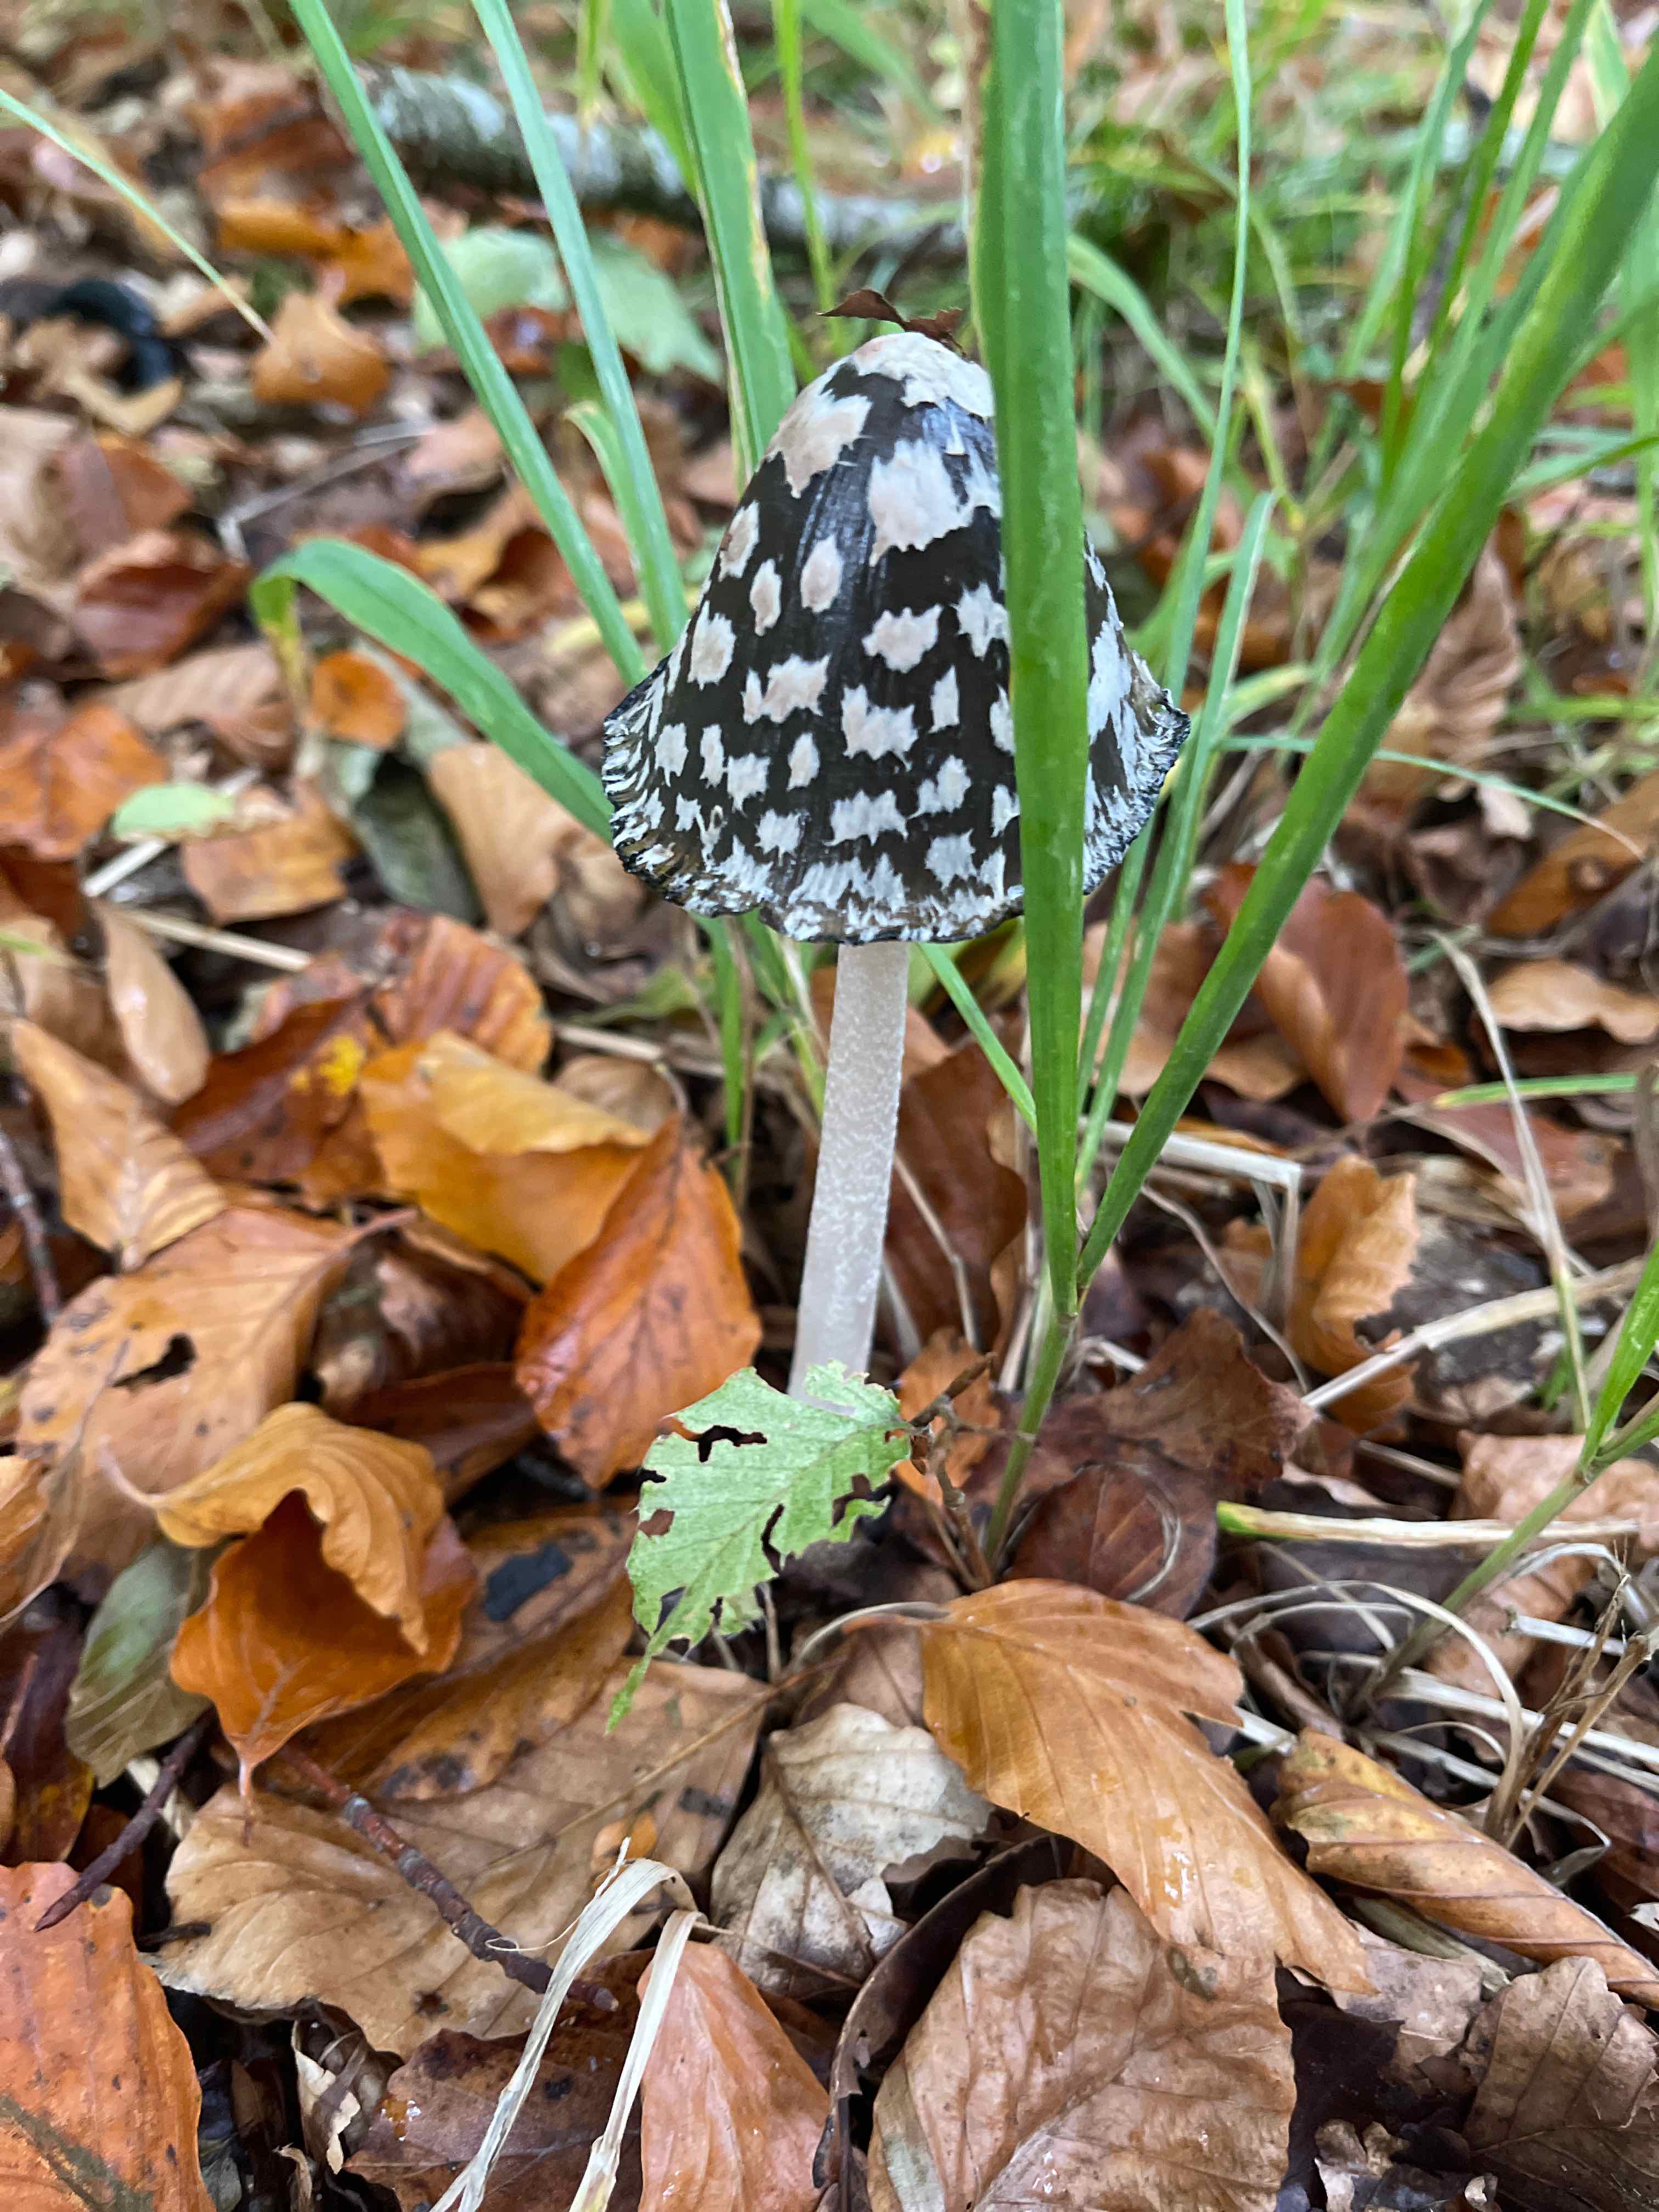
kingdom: Fungi
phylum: Basidiomycota
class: Agaricomycetes
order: Agaricales
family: Psathyrellaceae
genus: Coprinopsis
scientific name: Coprinopsis picacea
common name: skade-blækhat
